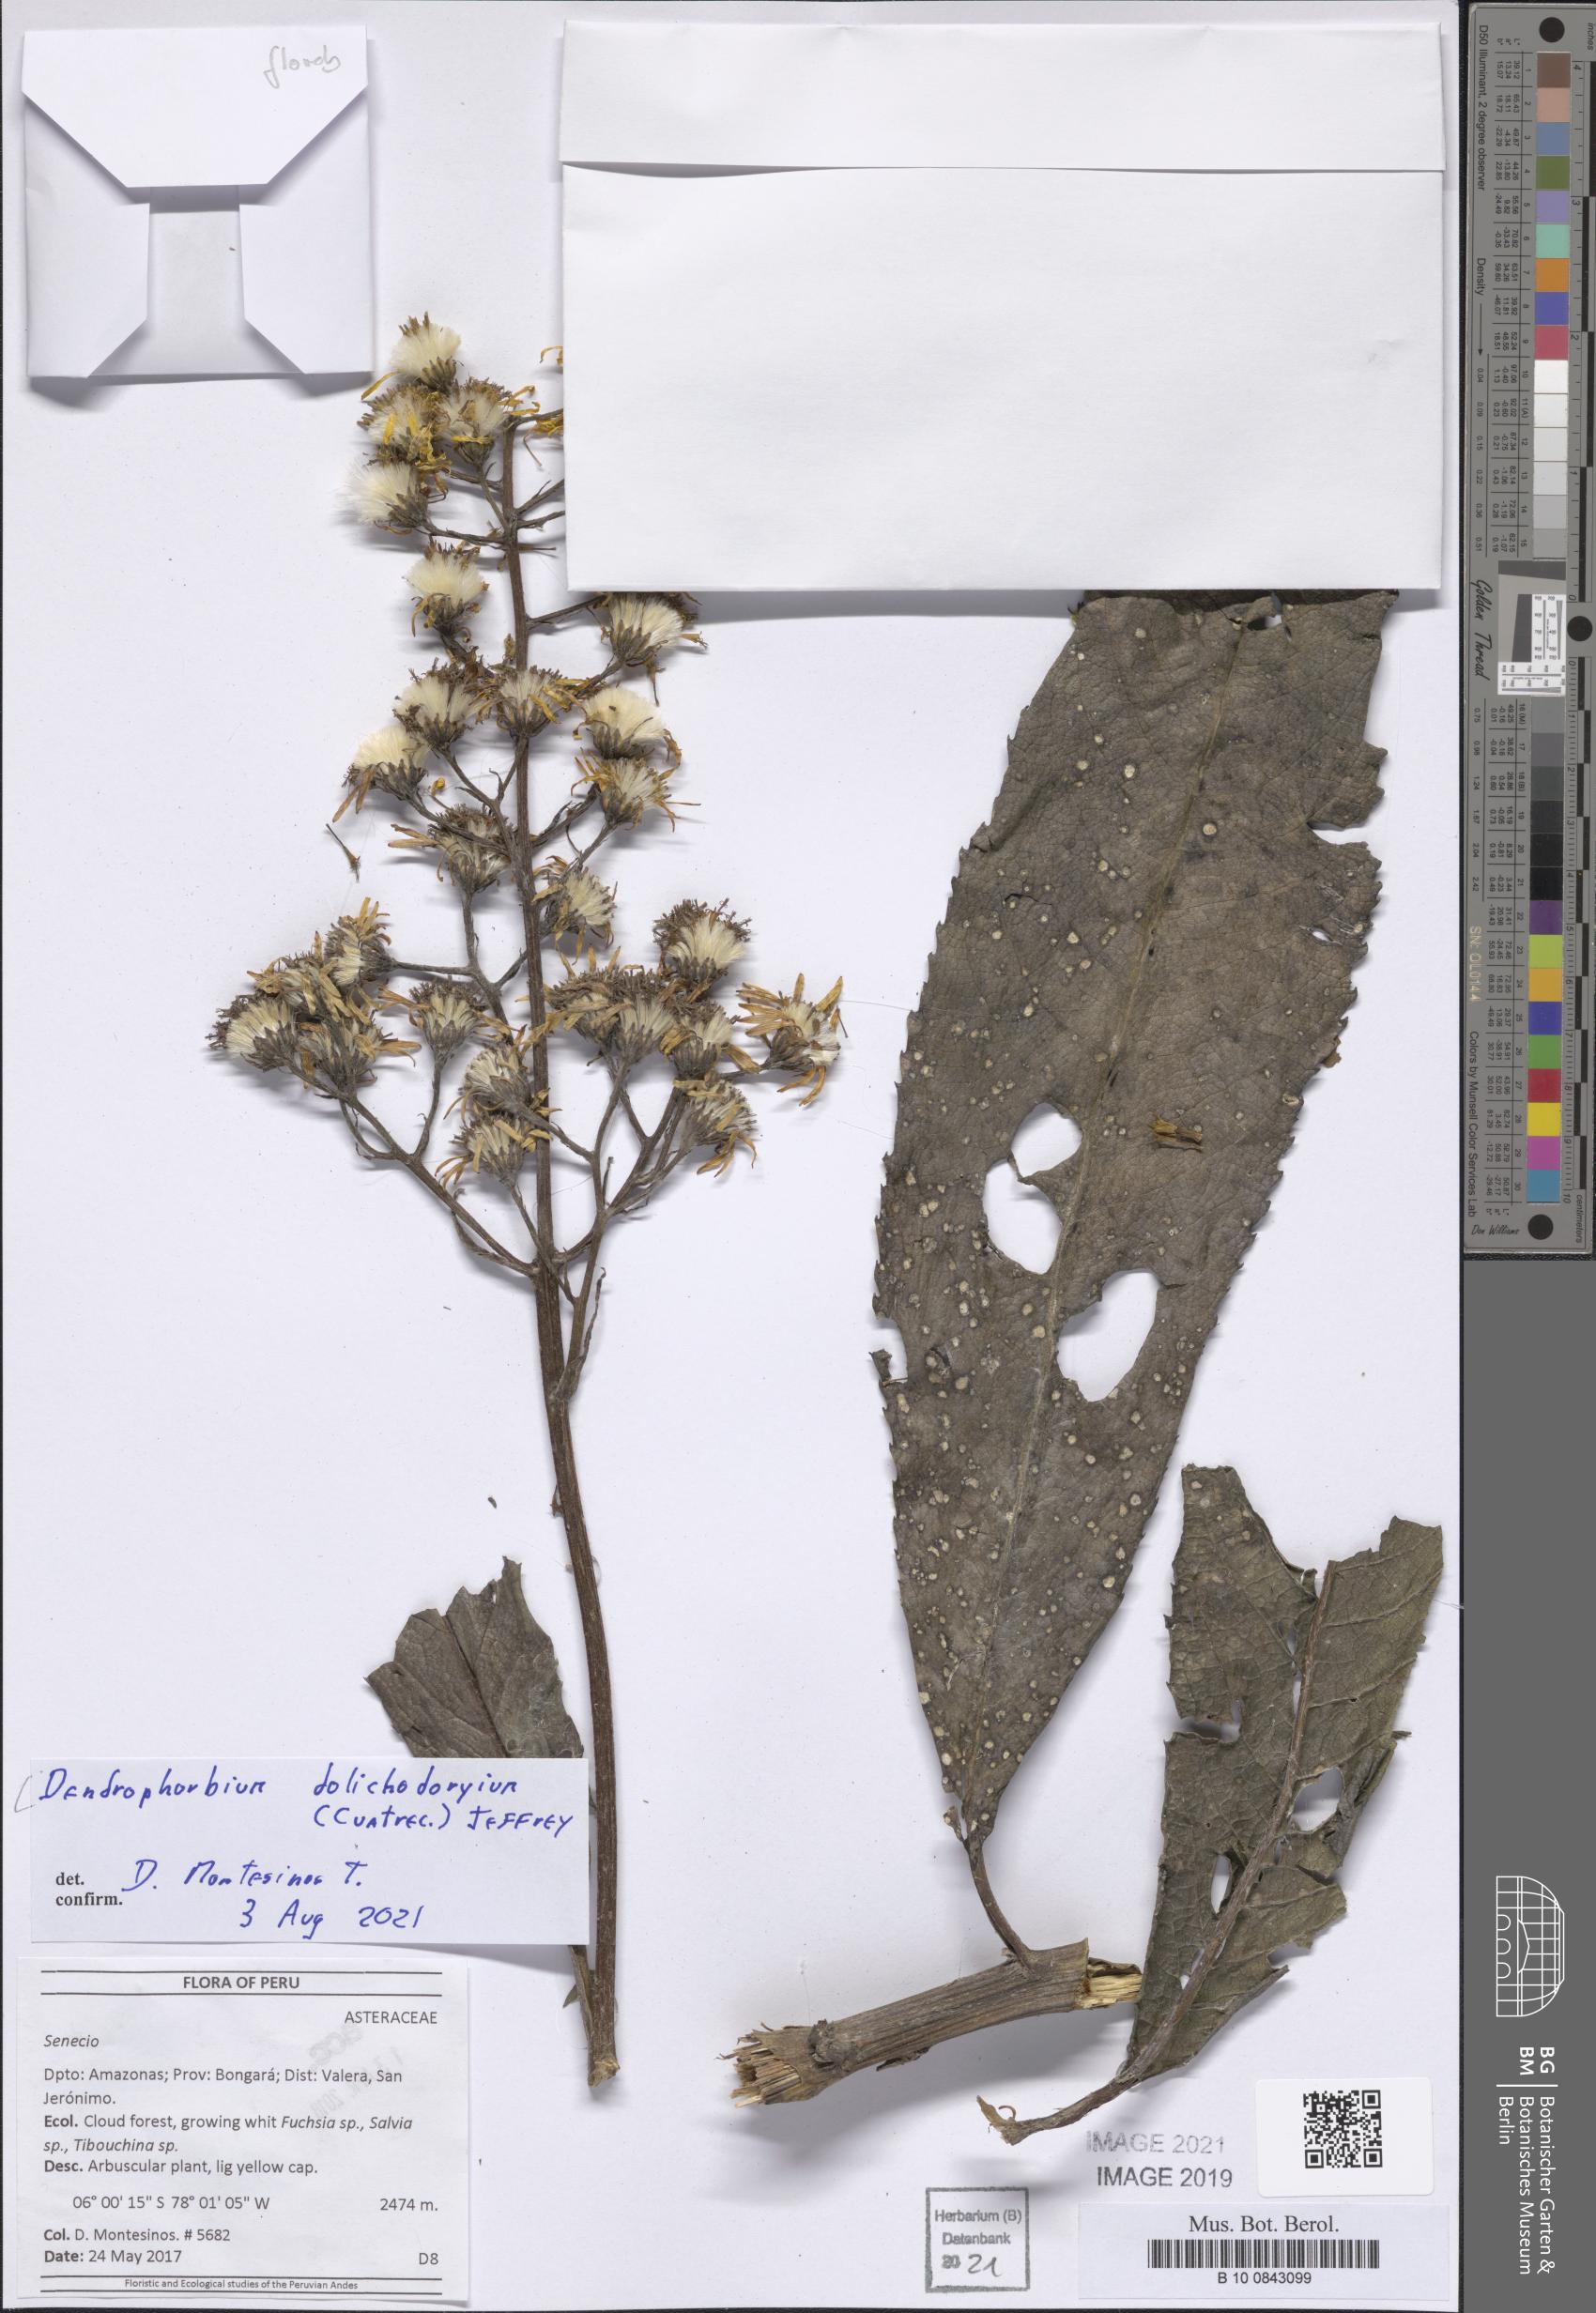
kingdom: Plantae
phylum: Tracheophyta
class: Magnoliopsida
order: Asterales
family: Asteraceae
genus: Dendrophorbium
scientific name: Dendrophorbium dolichodoryium
